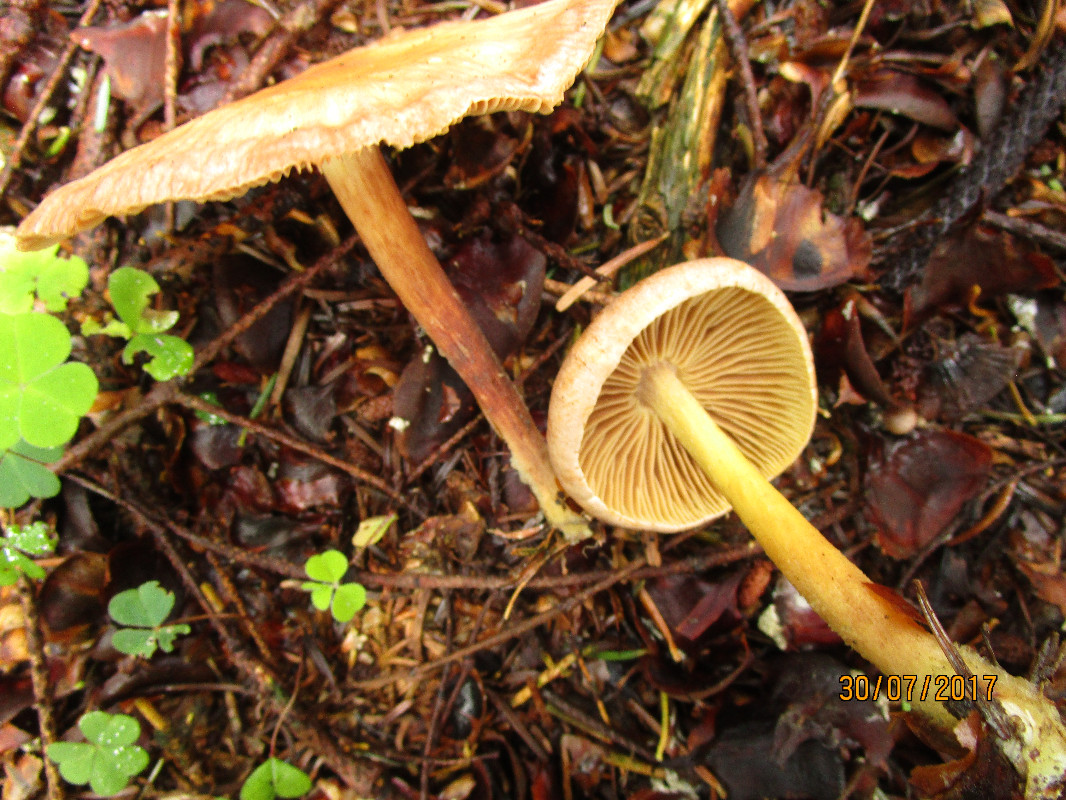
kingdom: Fungi
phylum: Basidiomycota
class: Agaricomycetes
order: Agaricales
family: Omphalotaceae
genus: Collybiopsis
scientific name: Collybiopsis peronata
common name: bestøvlet fladhat
